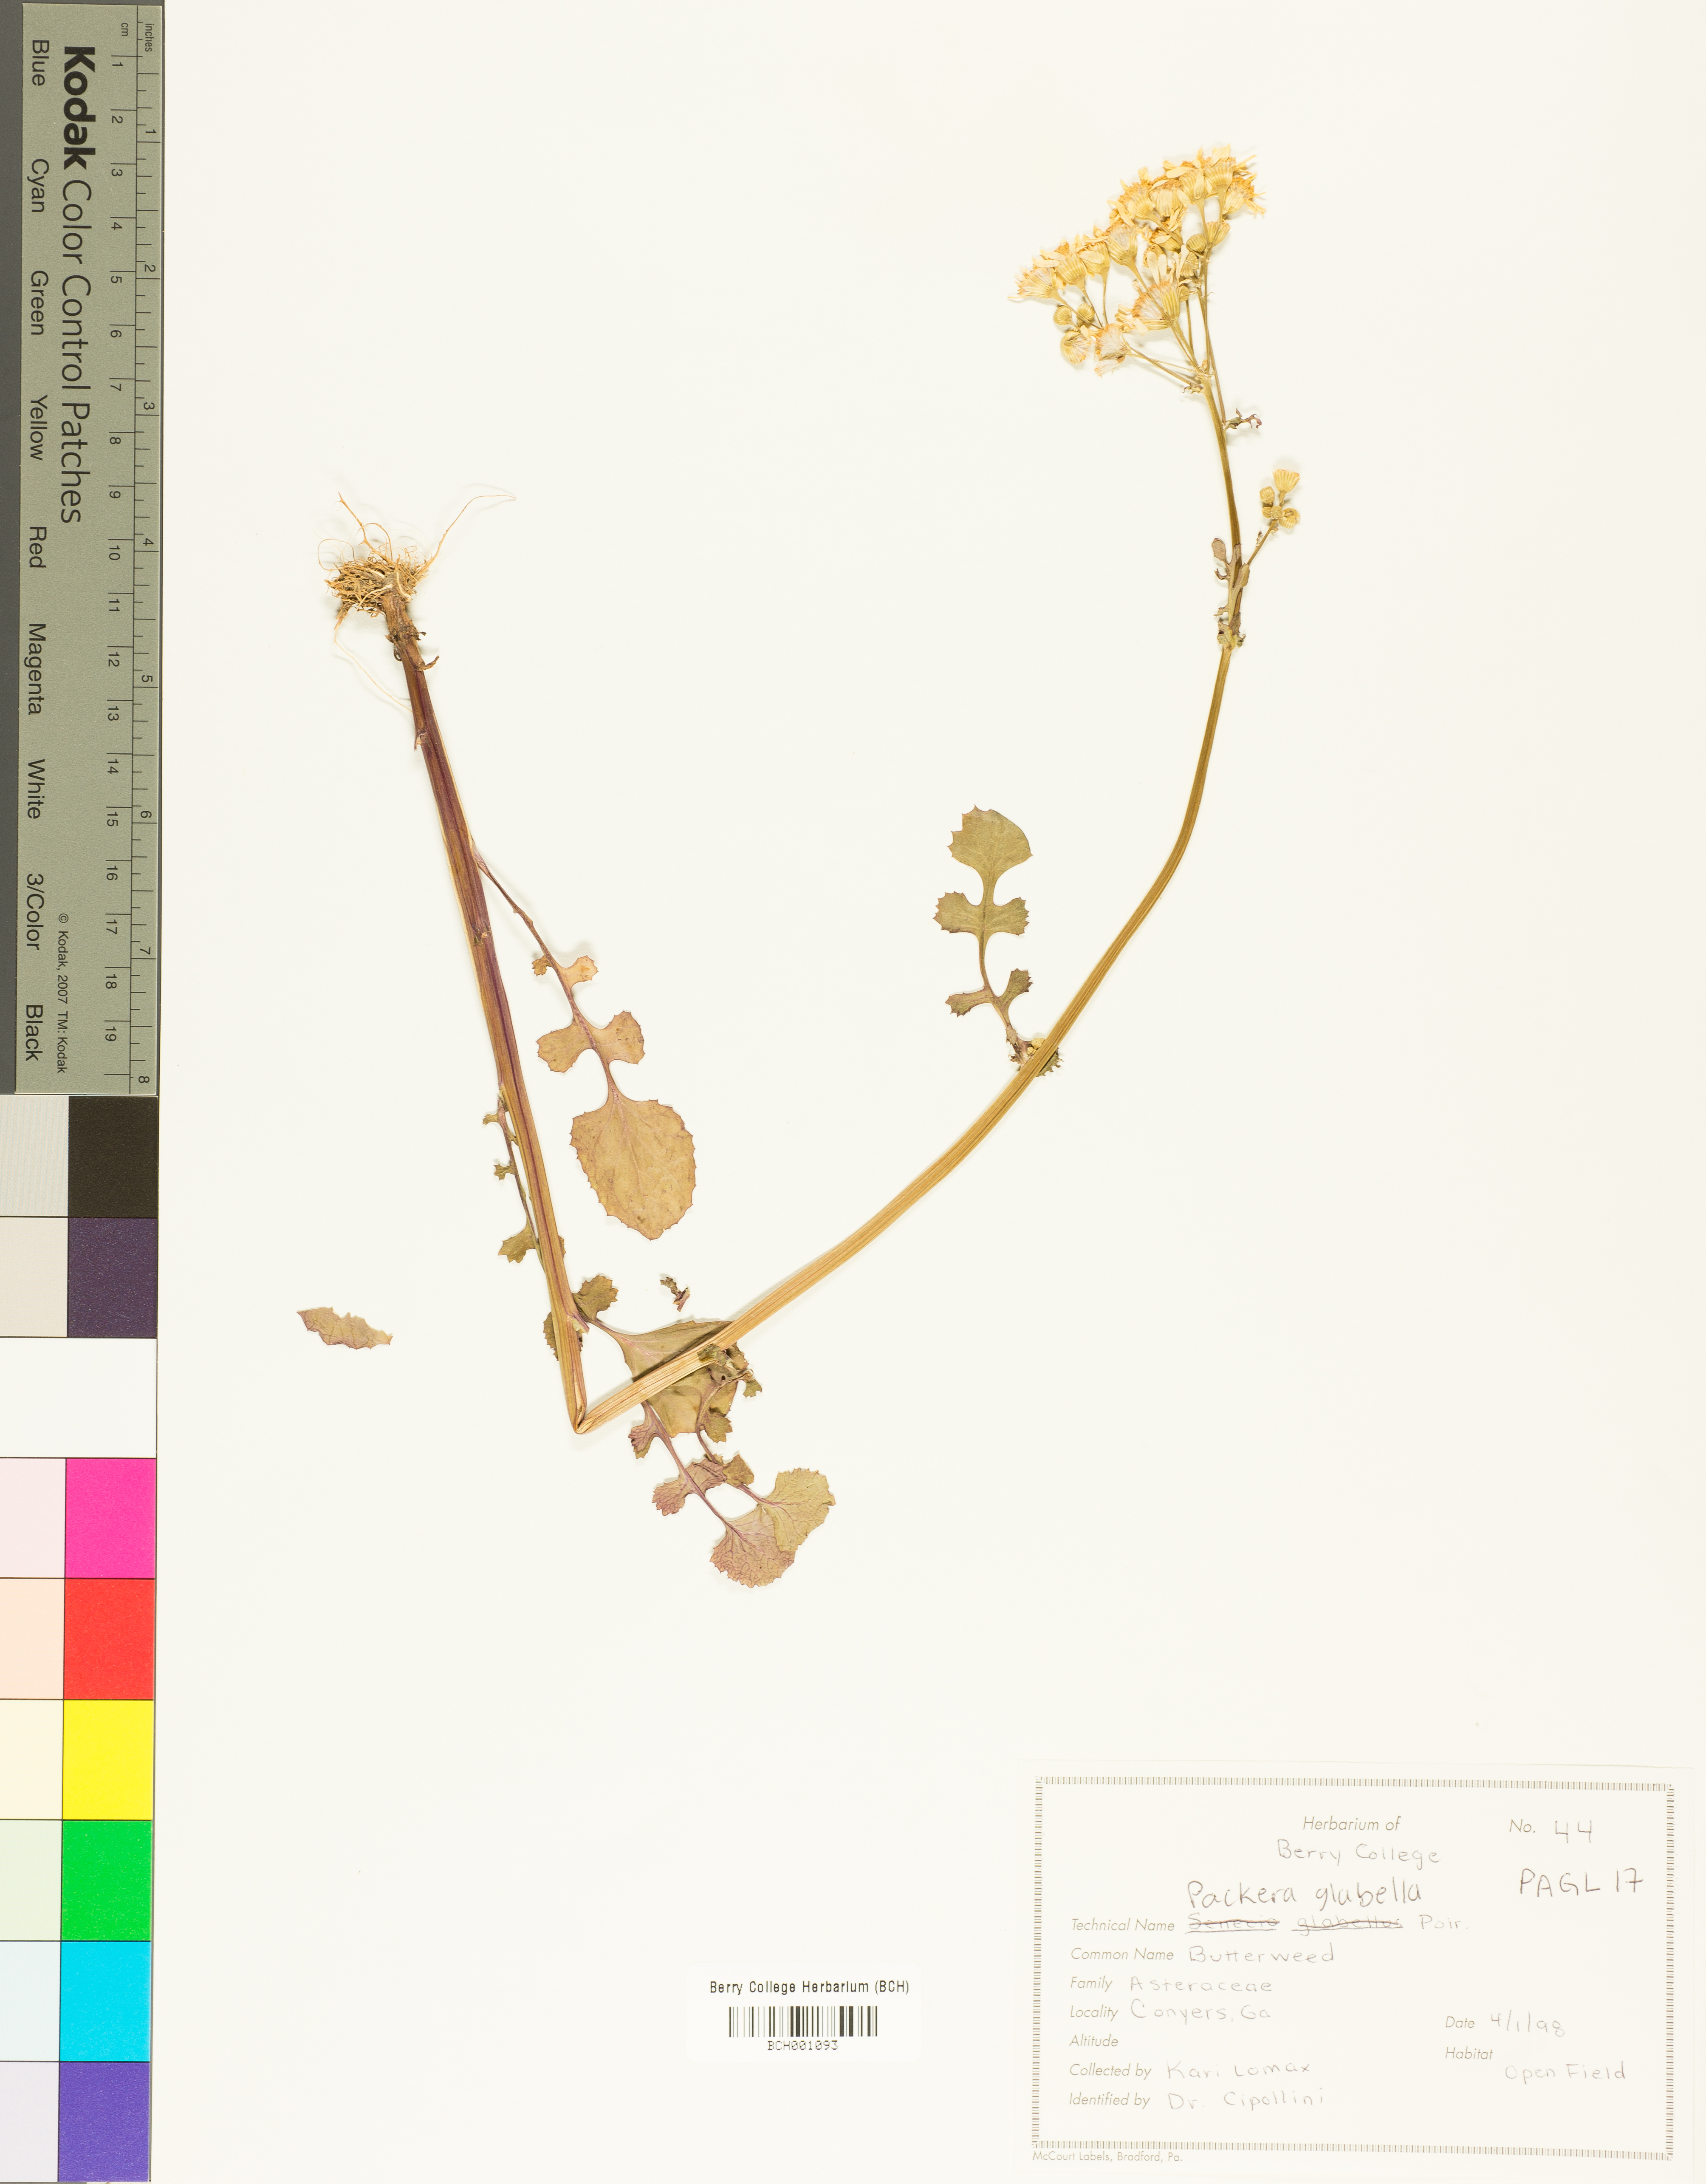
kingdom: Plantae
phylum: Tracheophyta
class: Magnoliopsida
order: Asterales
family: Asteraceae
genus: Packera
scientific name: Packera glabella
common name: Butterweed
